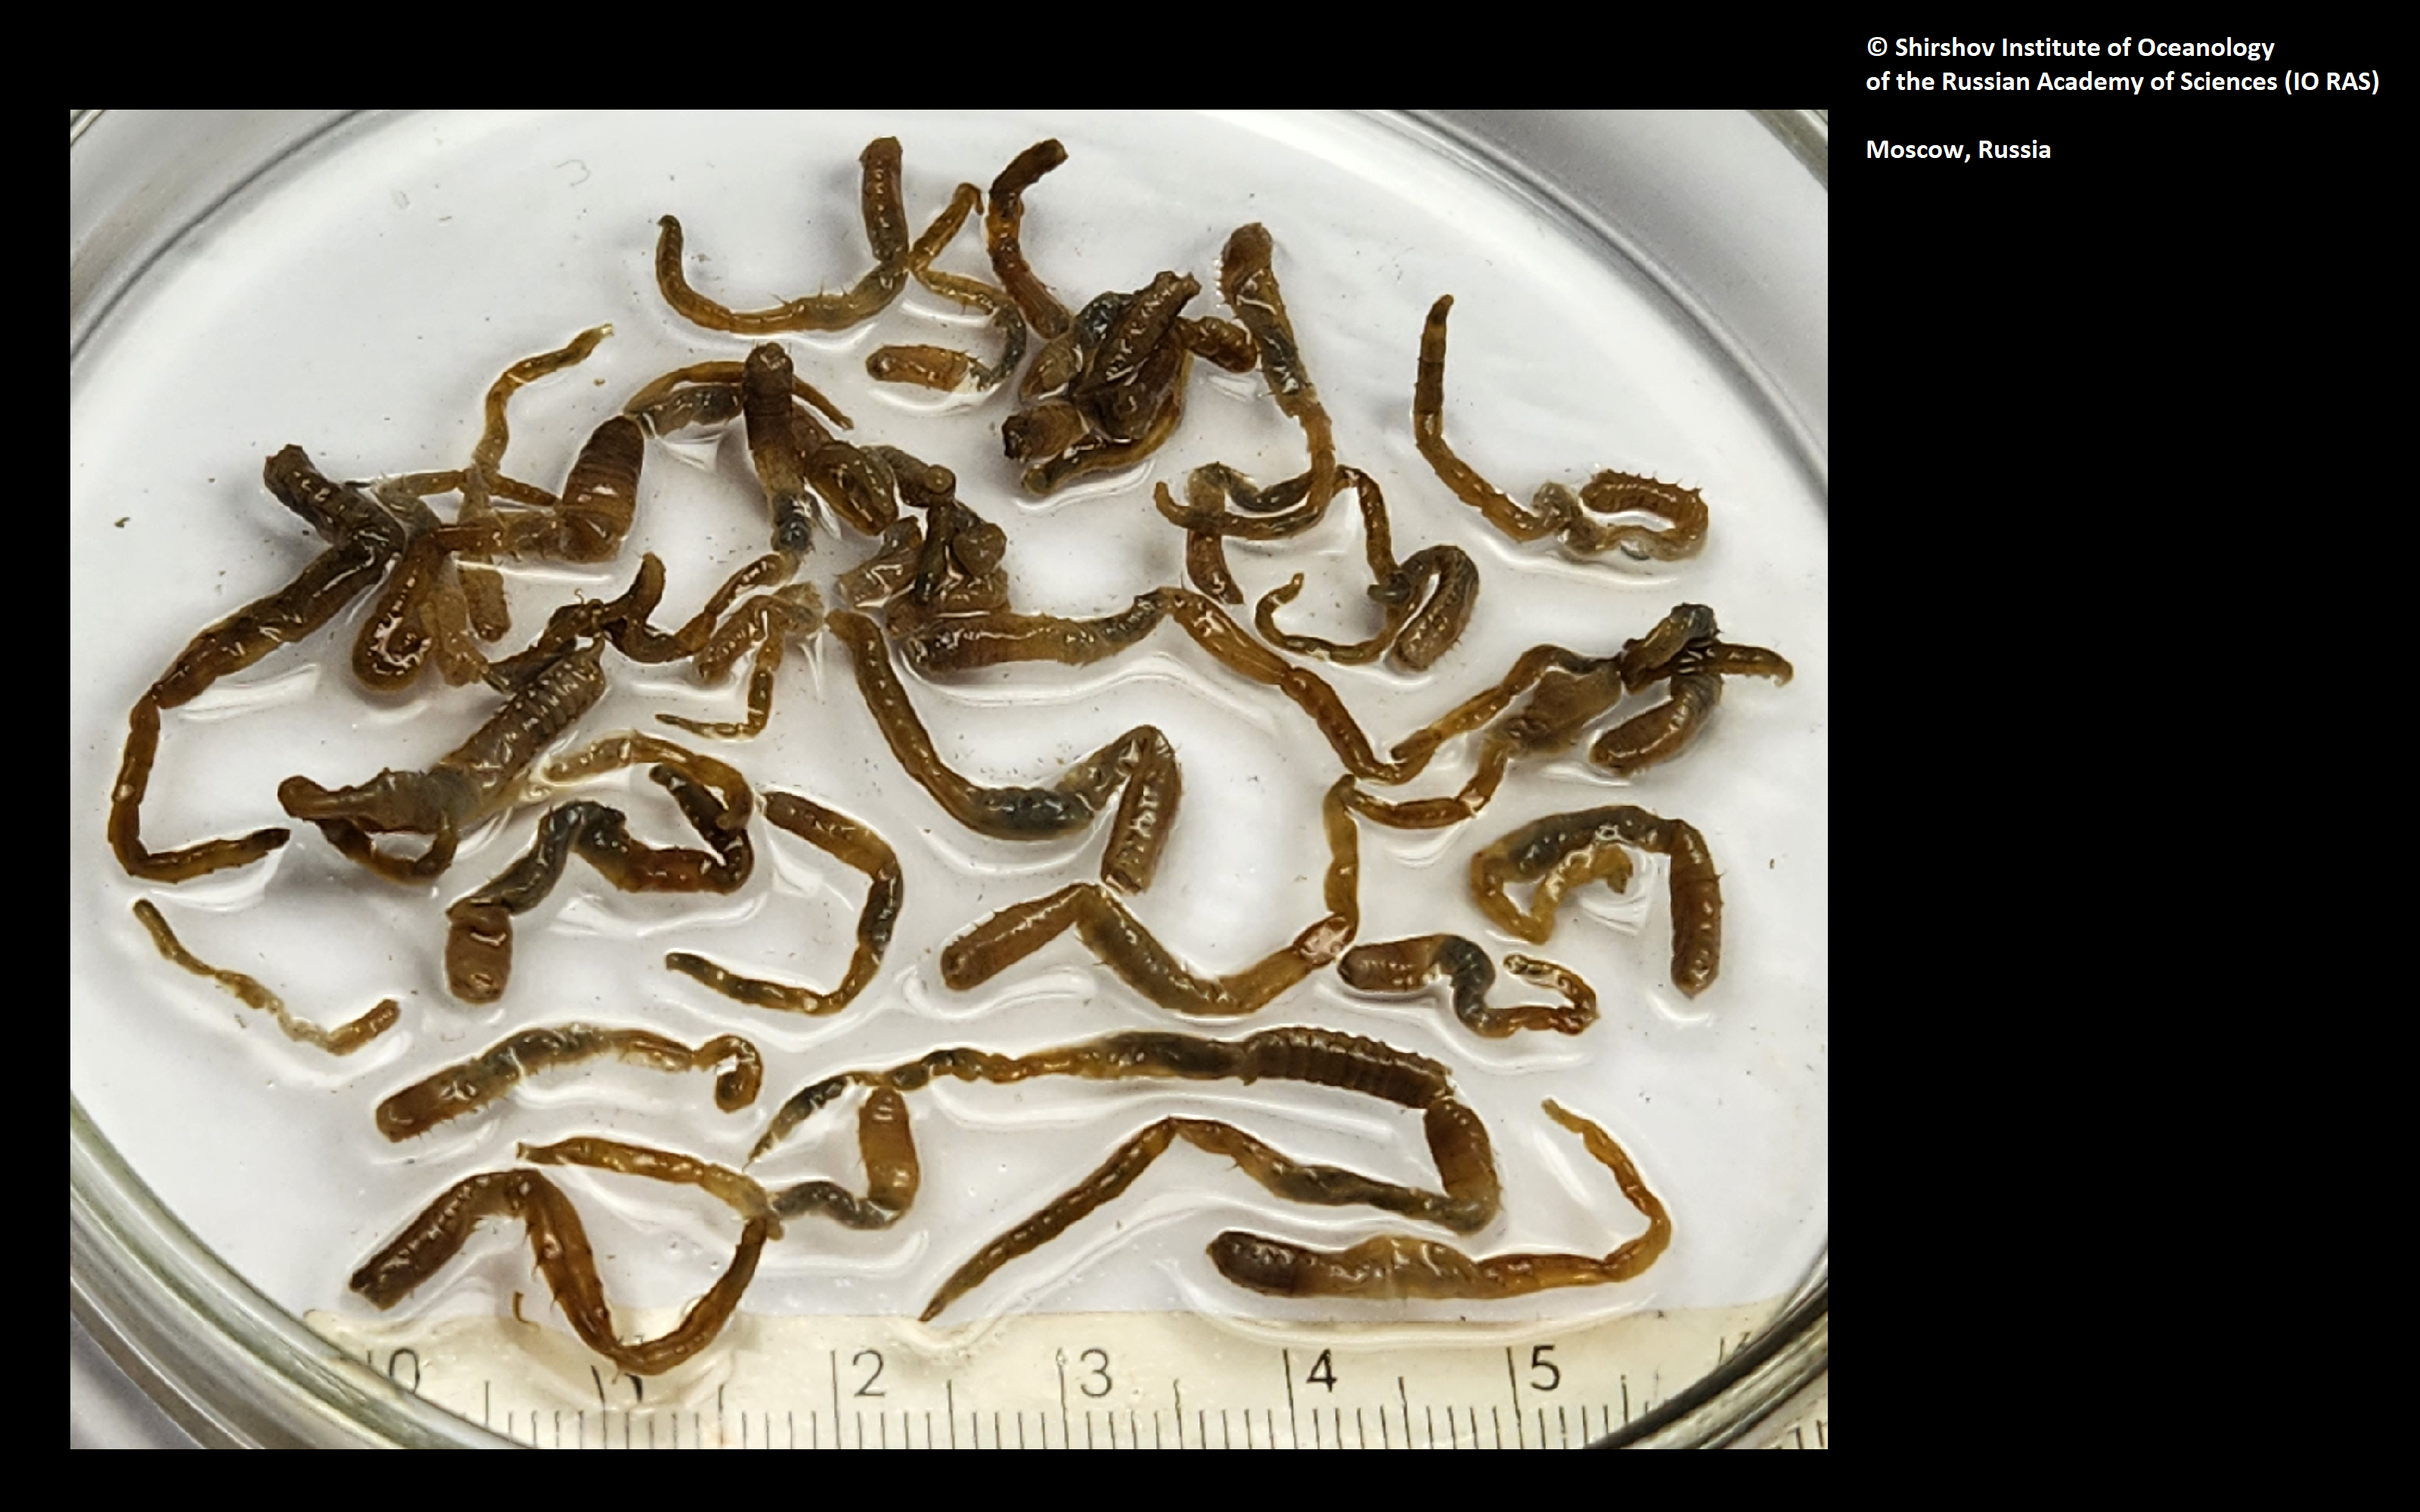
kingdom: Animalia
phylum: Annelida
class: Polychaeta
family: Ampharetidae
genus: Anobothrus
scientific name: Anobothrus mironovi
